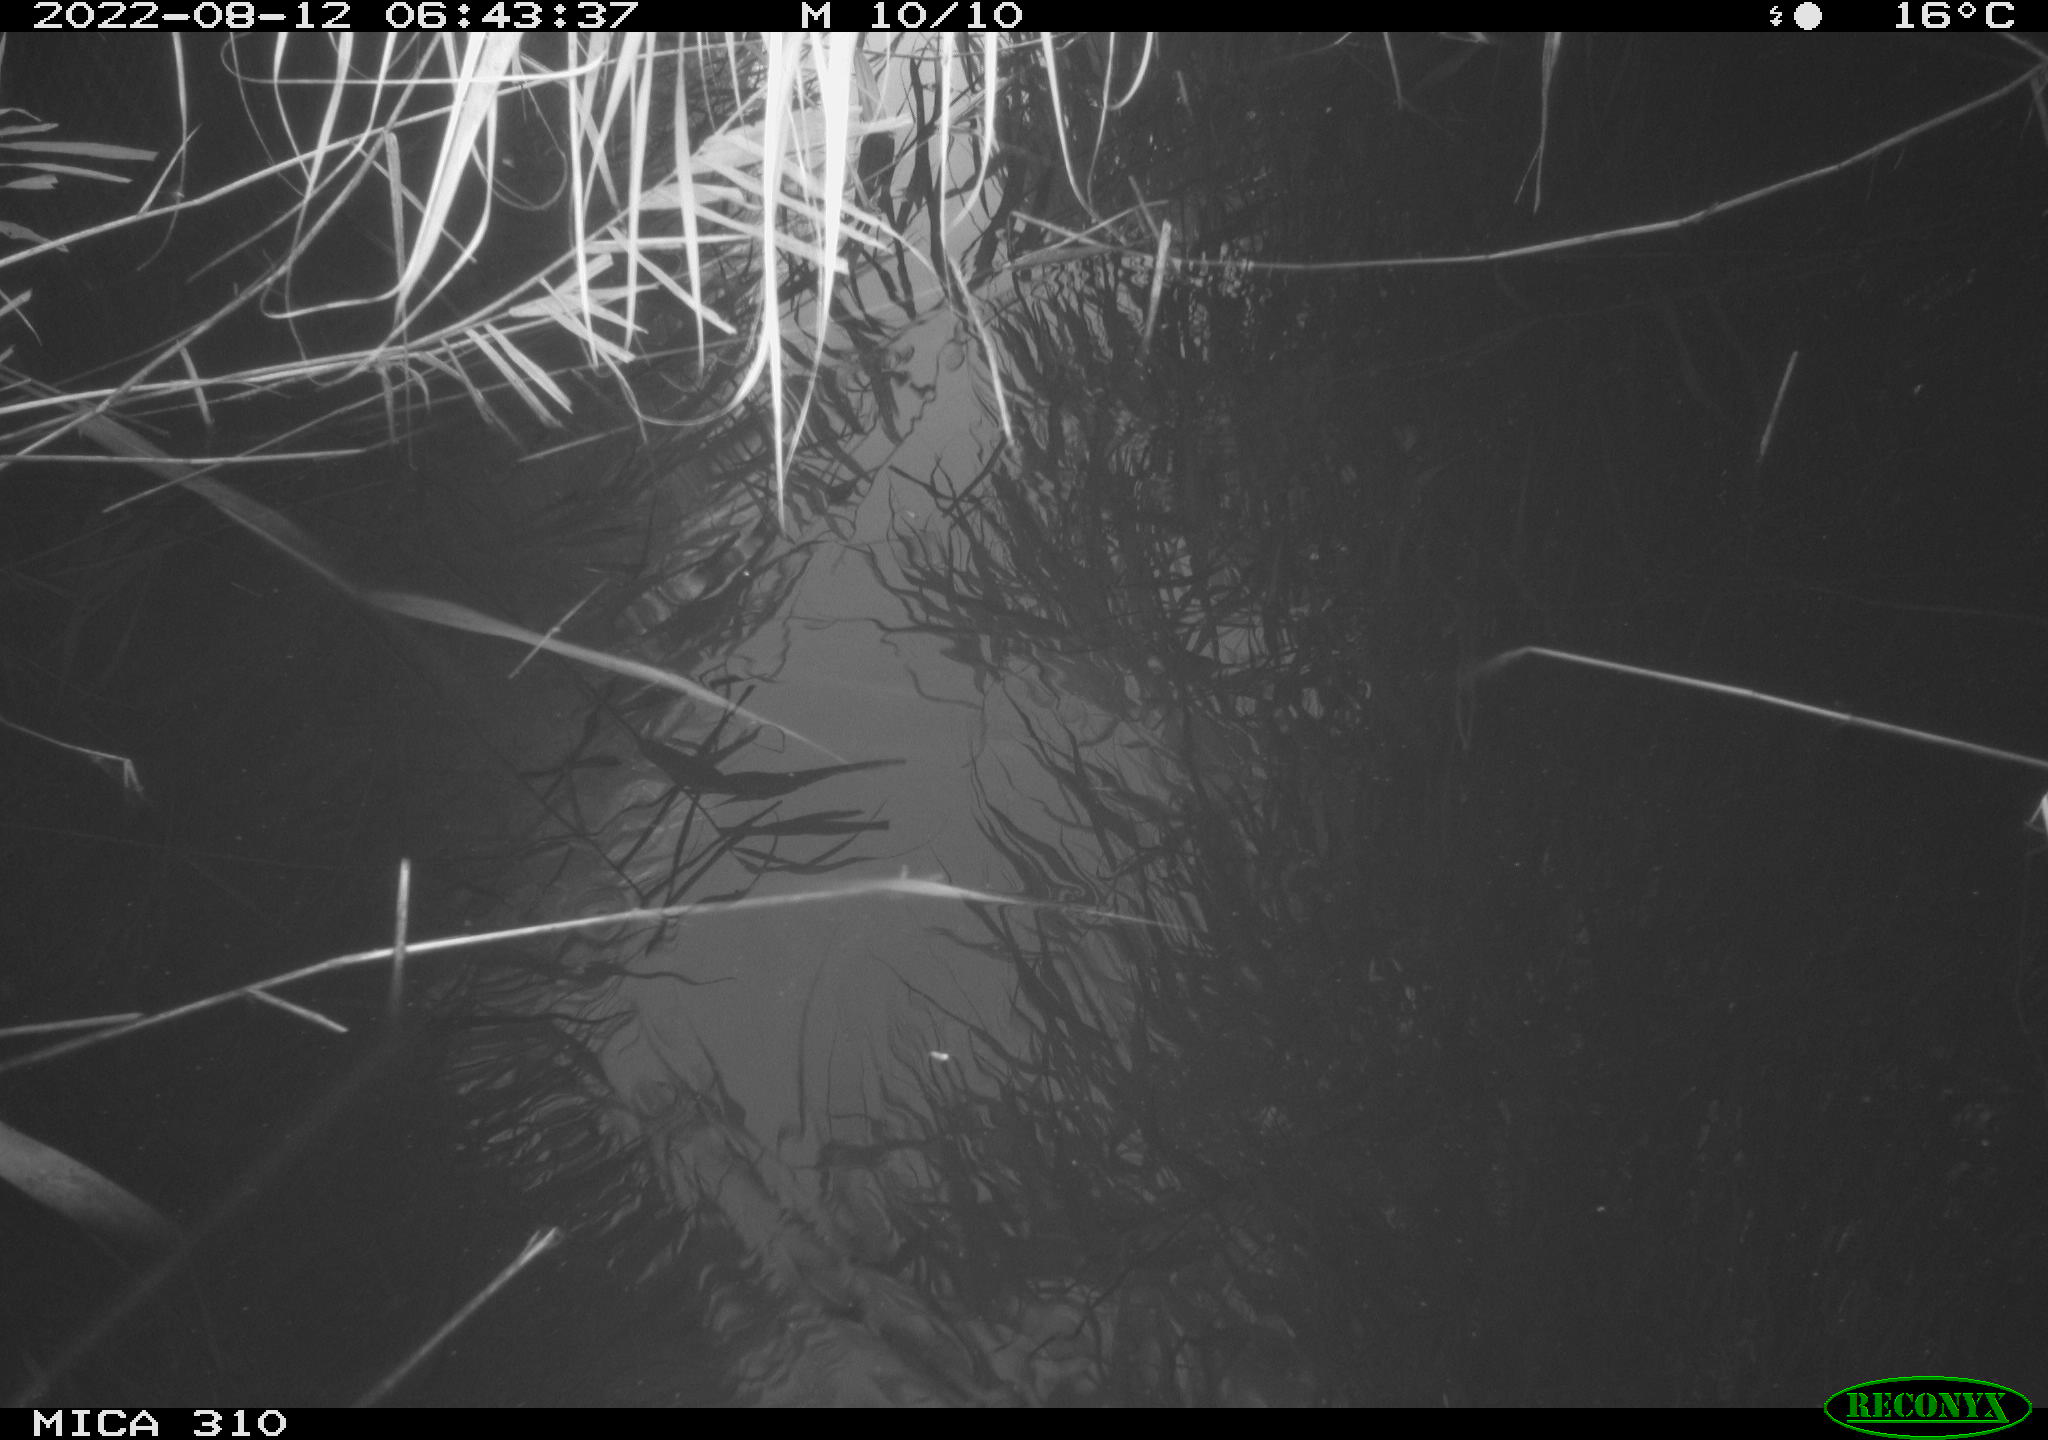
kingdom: Animalia
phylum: Chordata
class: Aves
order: Anseriformes
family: Anatidae
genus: Anas
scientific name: Anas platyrhynchos
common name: Mallard
